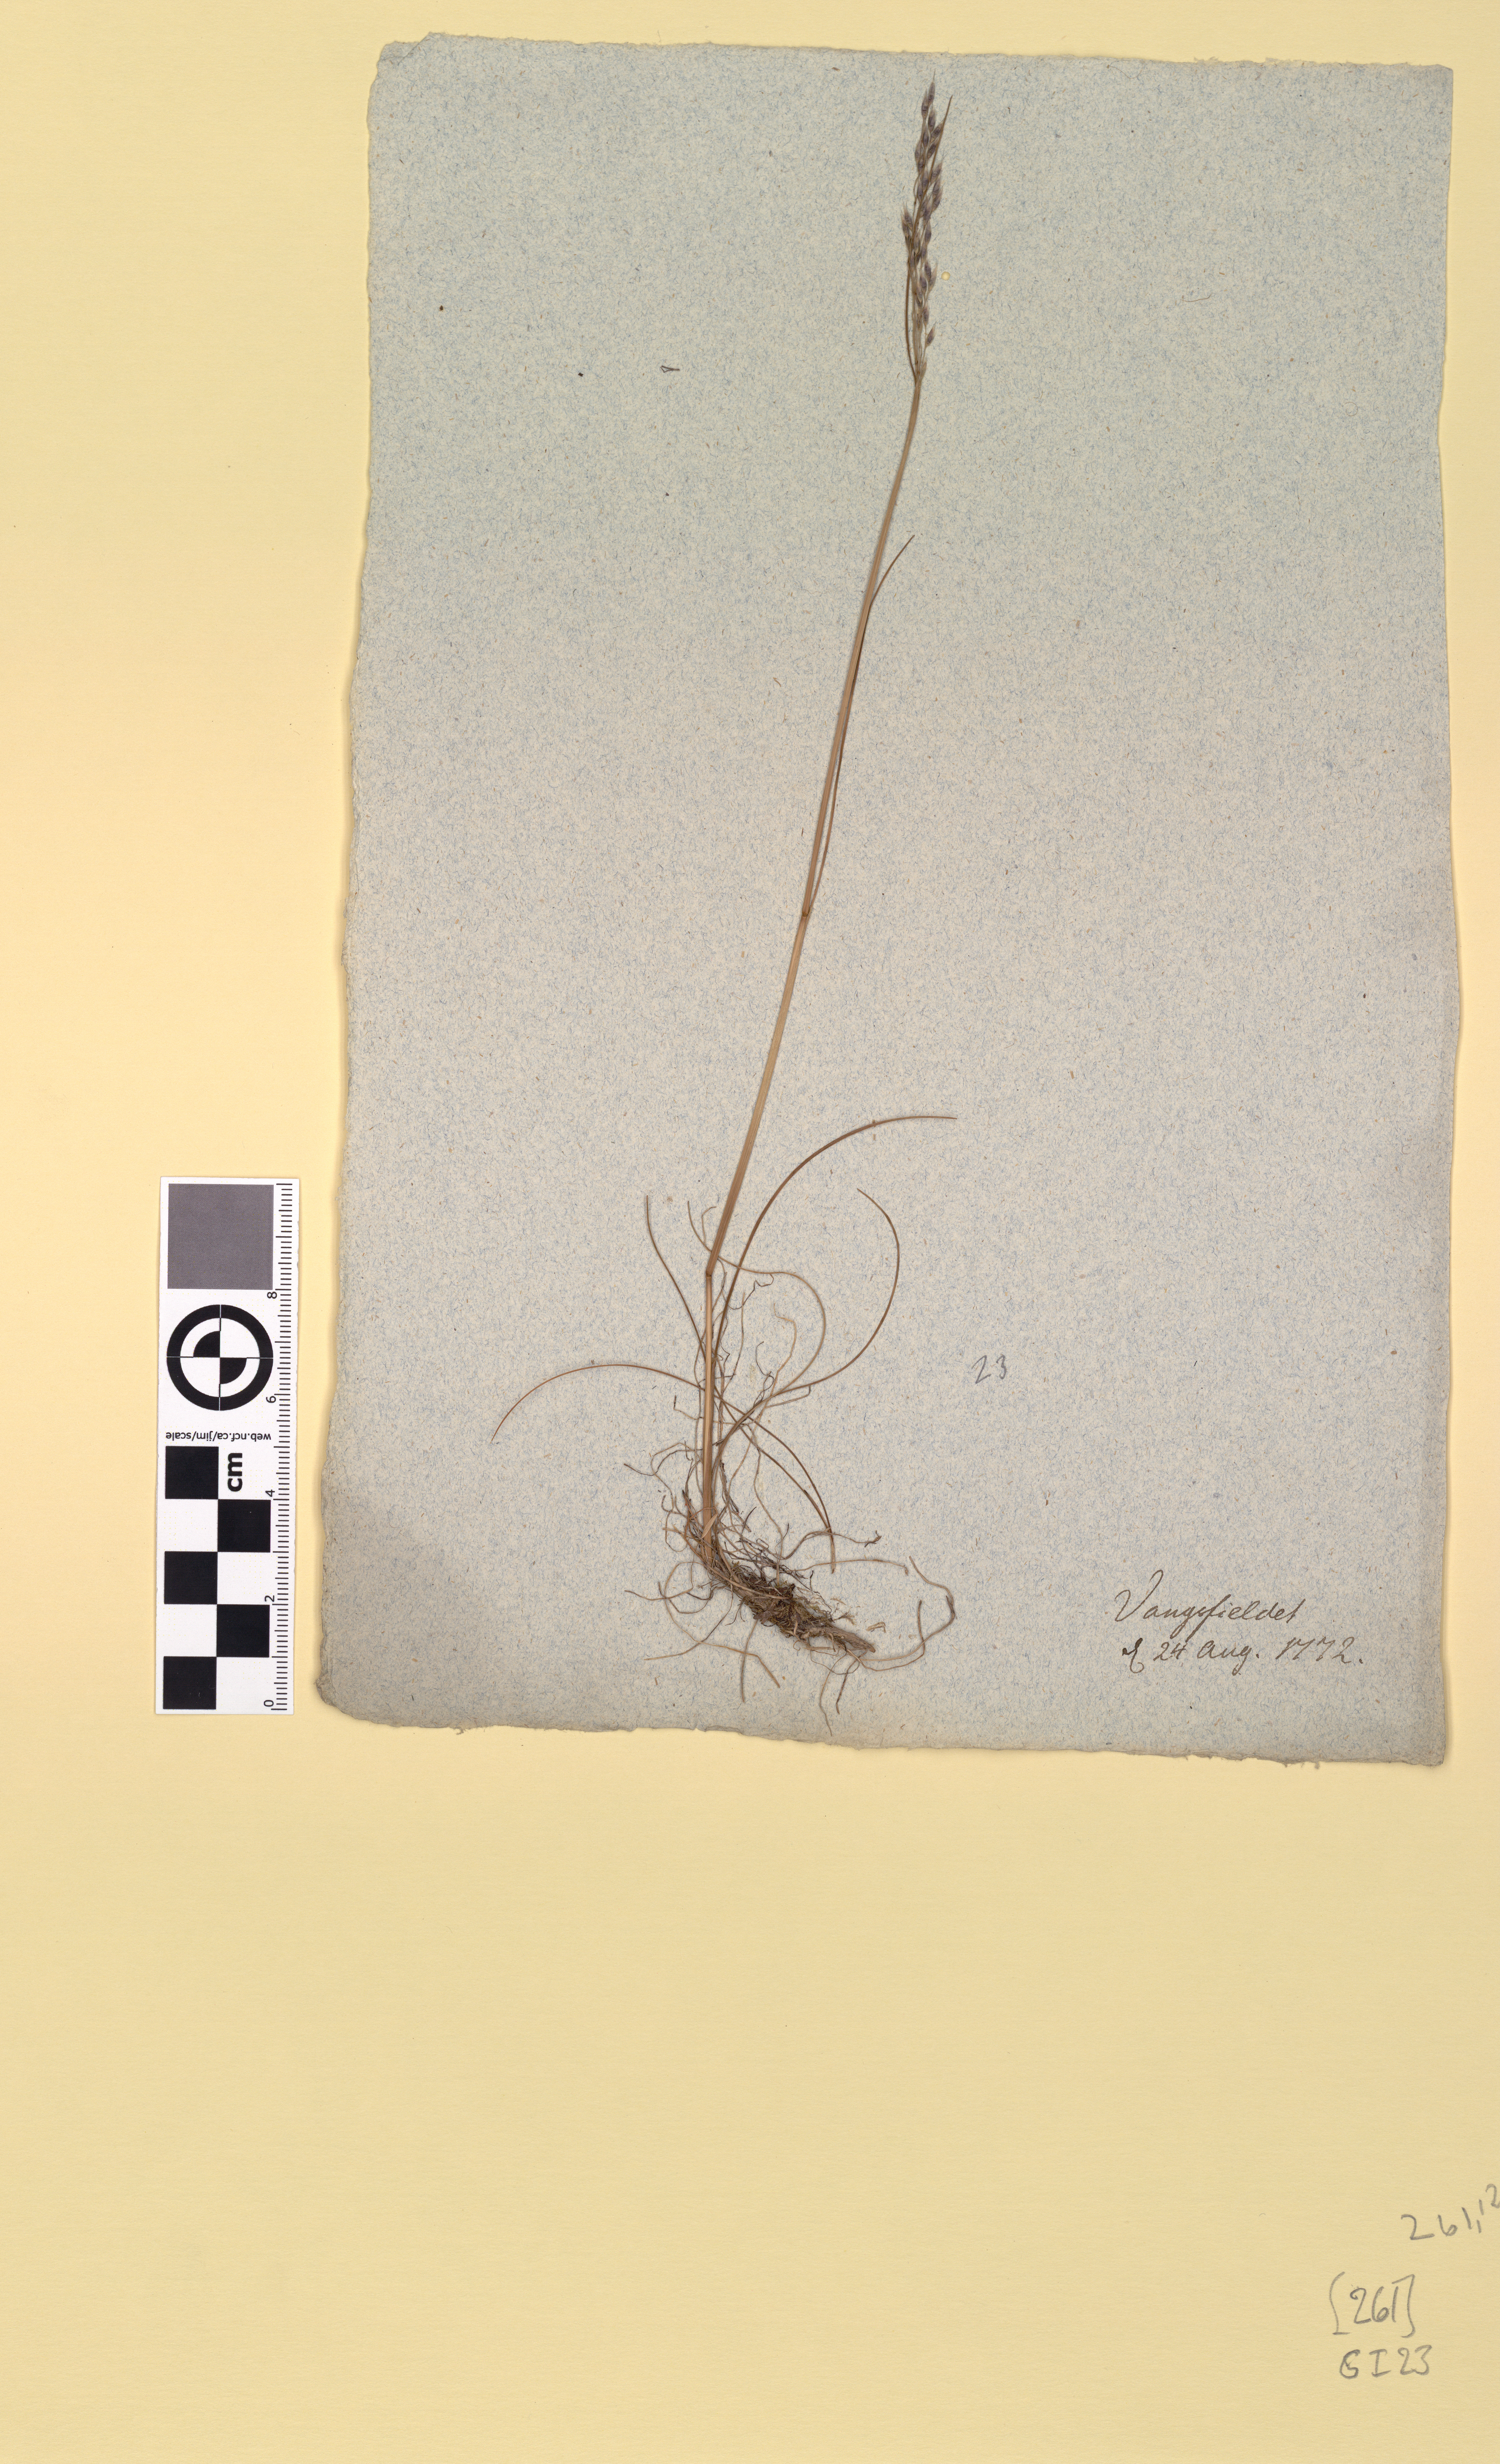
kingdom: Plantae
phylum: Tracheophyta
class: Liliopsida
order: Poales
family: Poaceae
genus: Avenella
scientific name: Avenella flexuosa
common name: Wavy hairgrass
